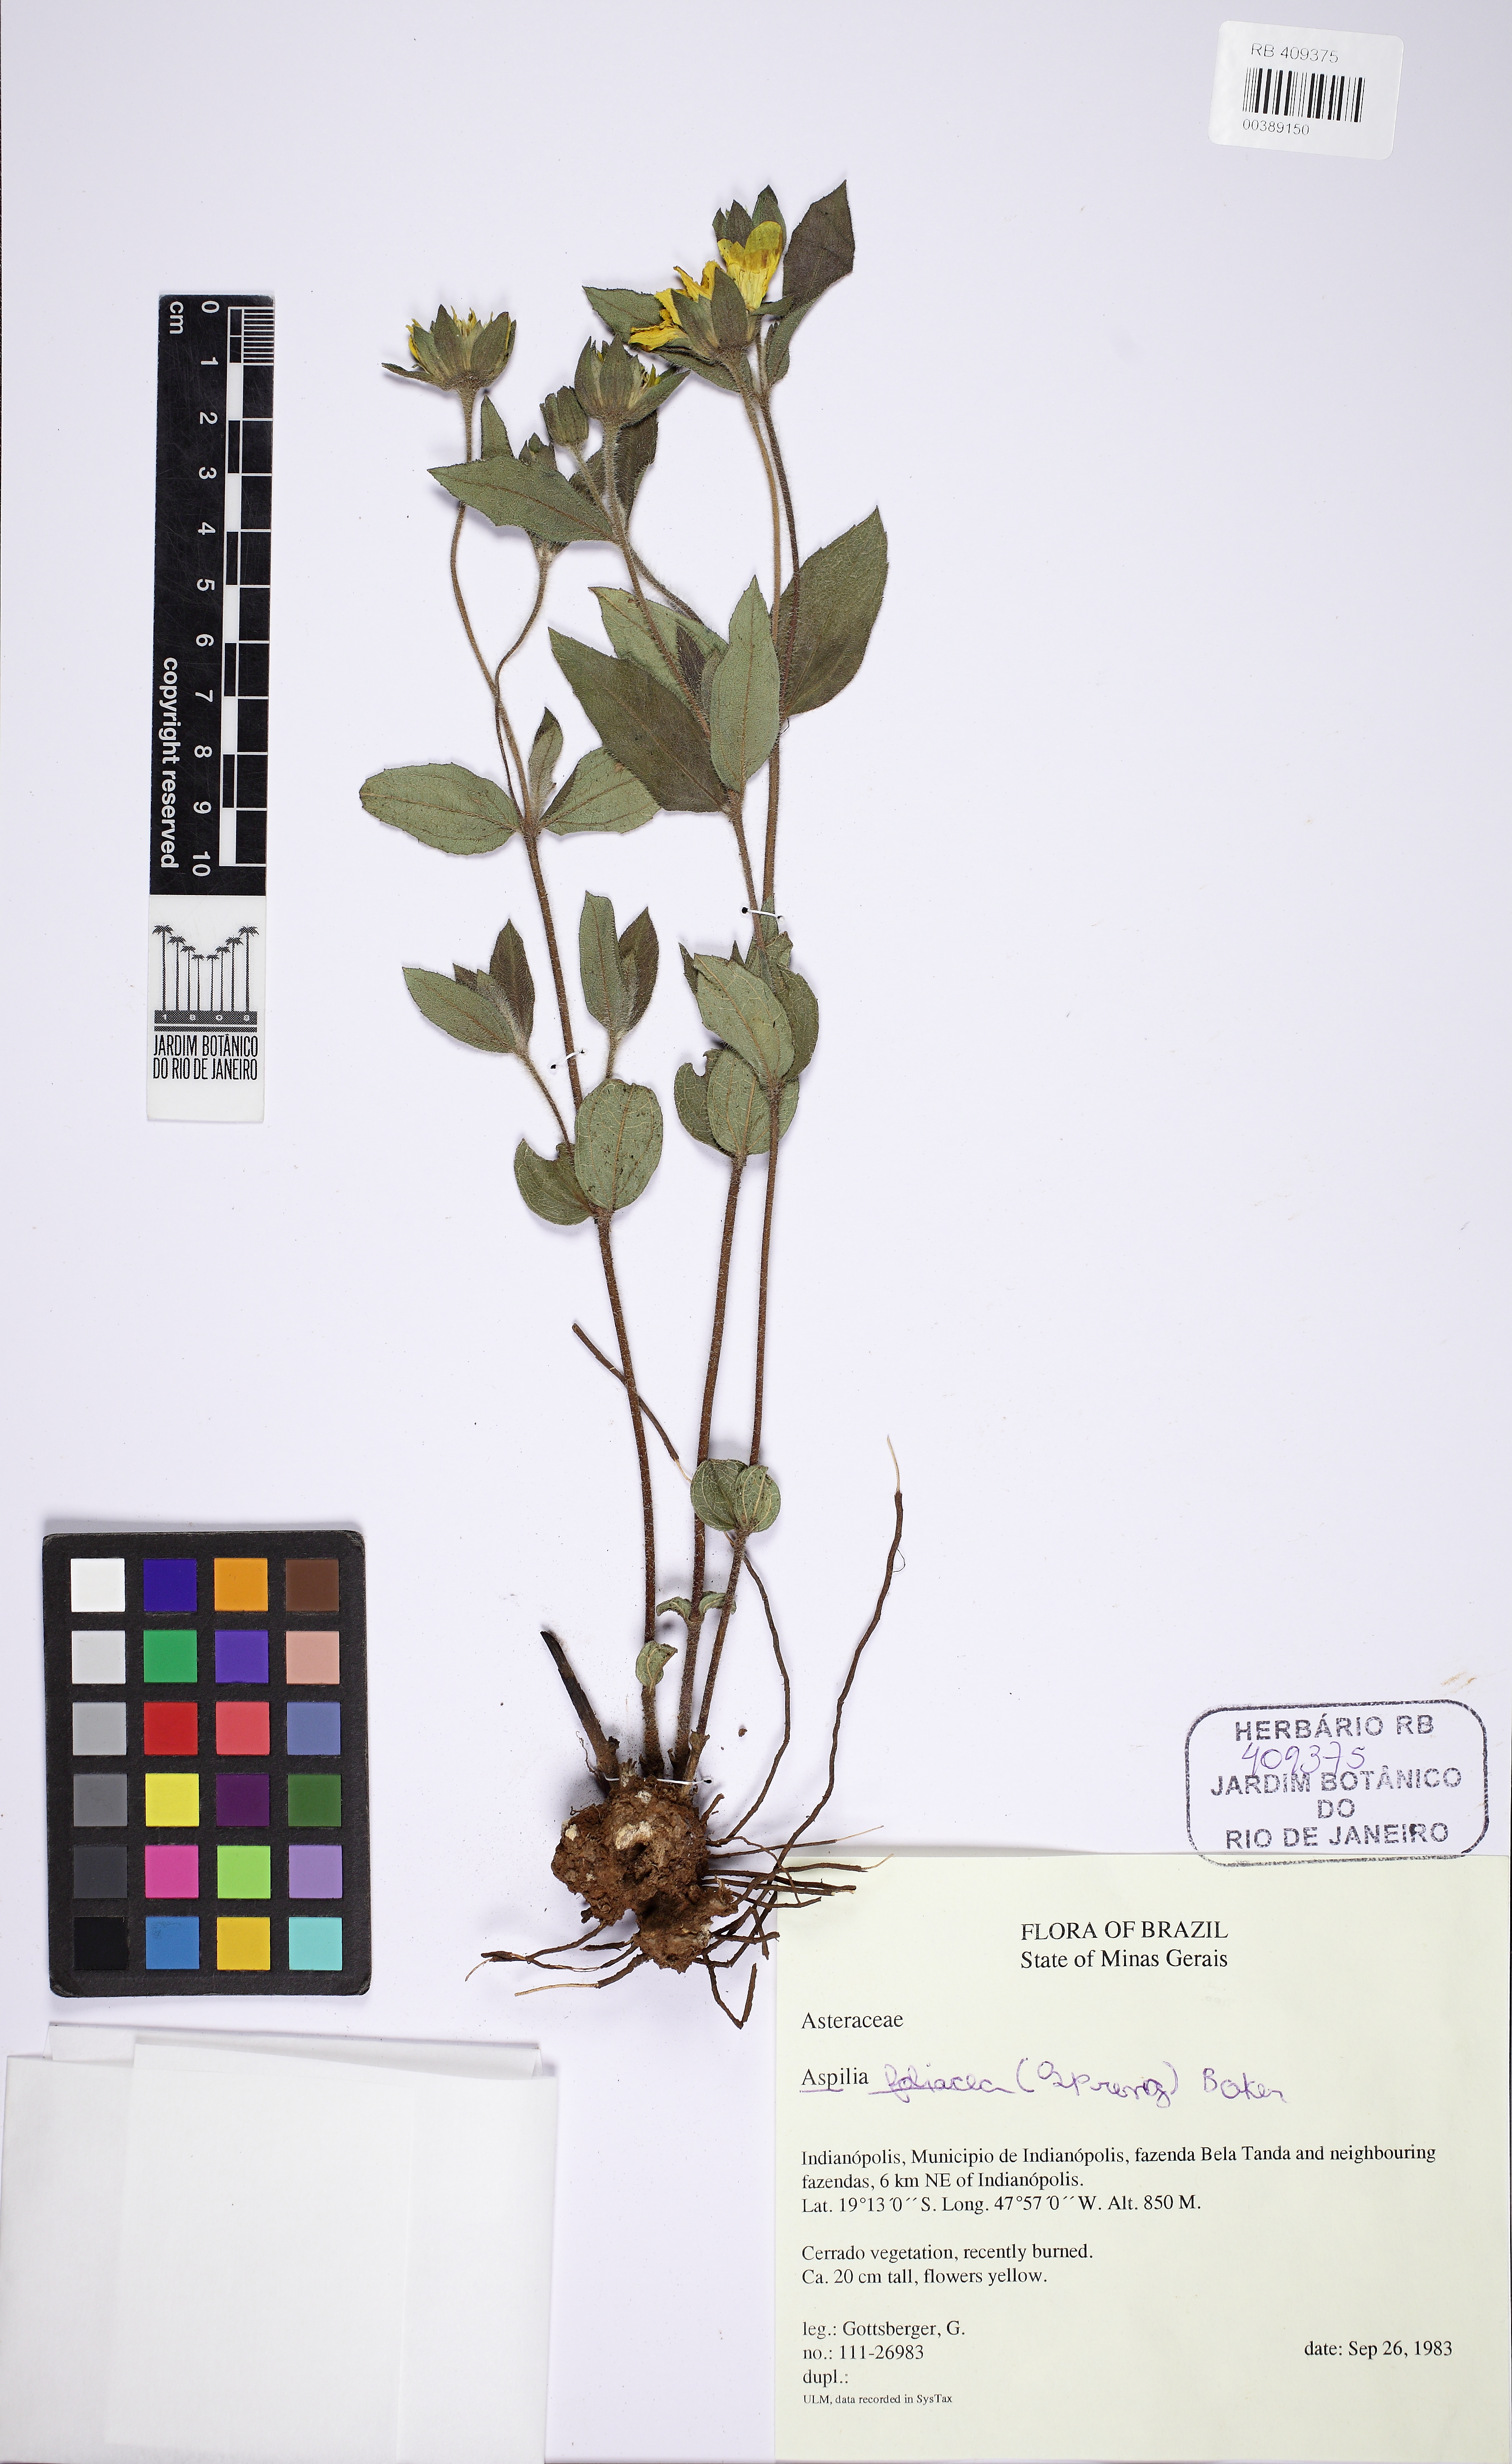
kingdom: Plantae
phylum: Tracheophyta
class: Magnoliopsida
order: Asterales
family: Asteraceae
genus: Wedelia
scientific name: Wedelia foliacea
